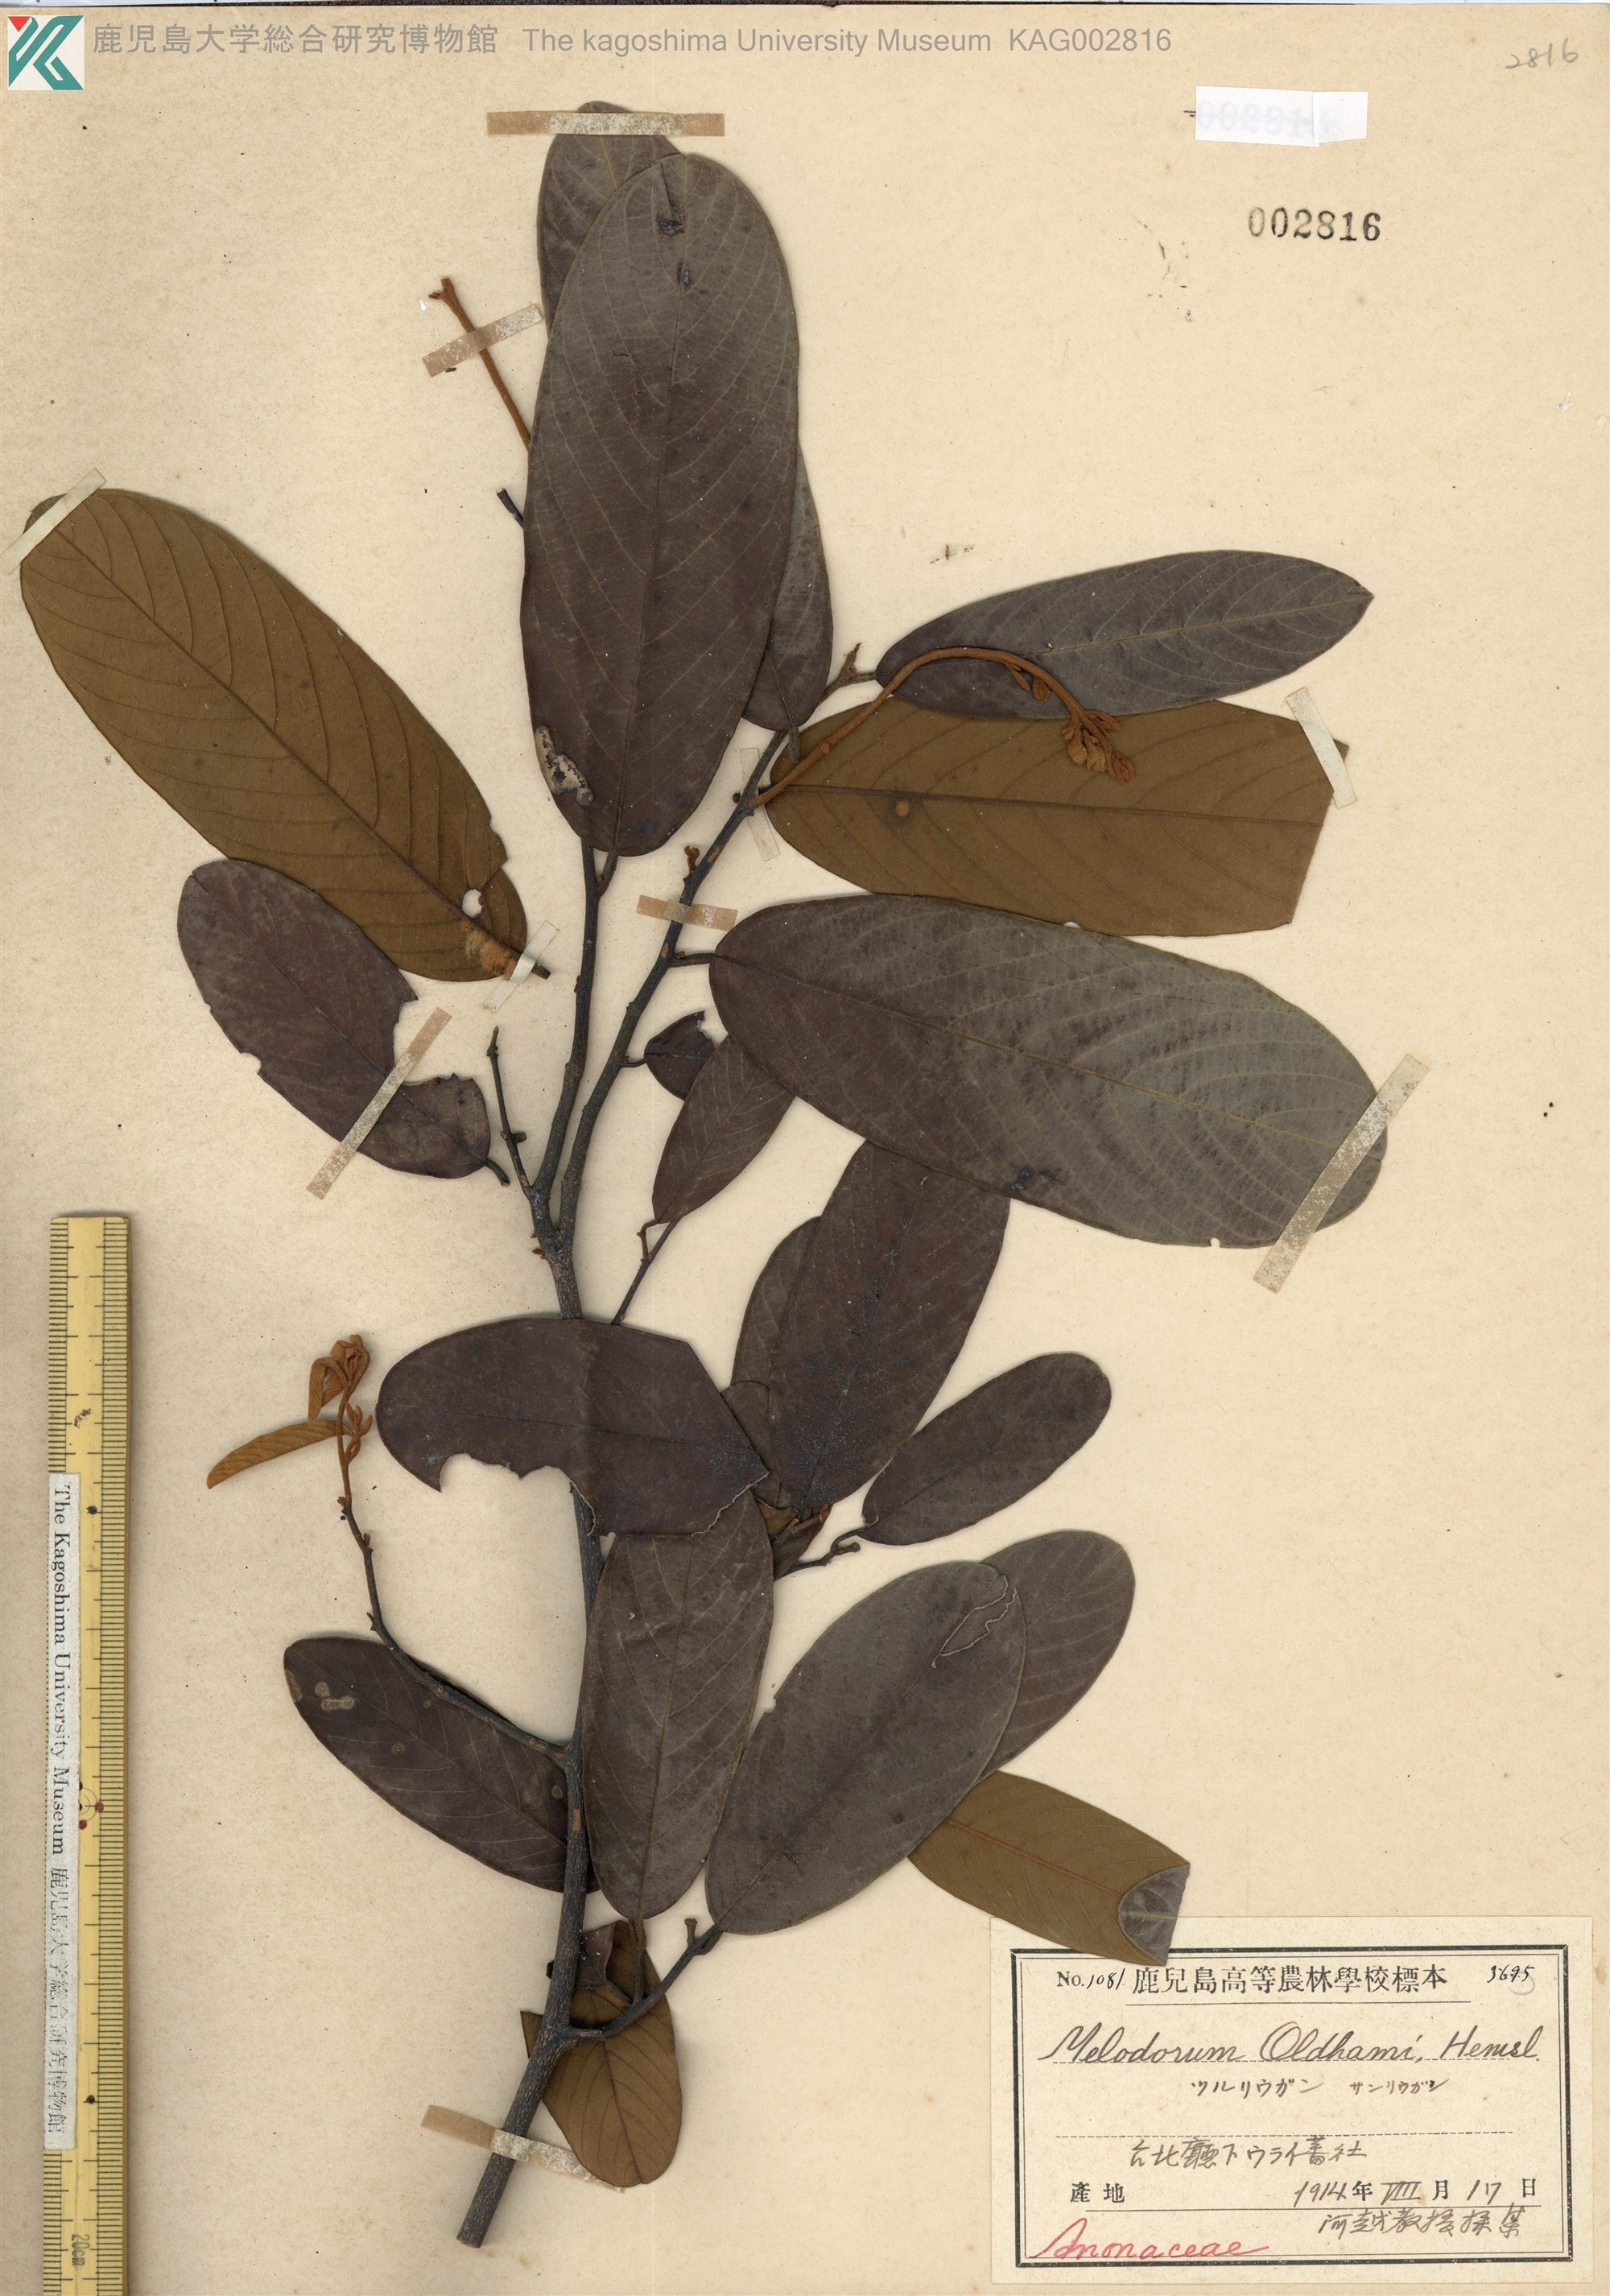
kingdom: Plantae
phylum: Tracheophyta
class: Magnoliopsida
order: Magnoliales
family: Annonaceae
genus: Fissistigma
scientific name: Fissistigma oldhamii
